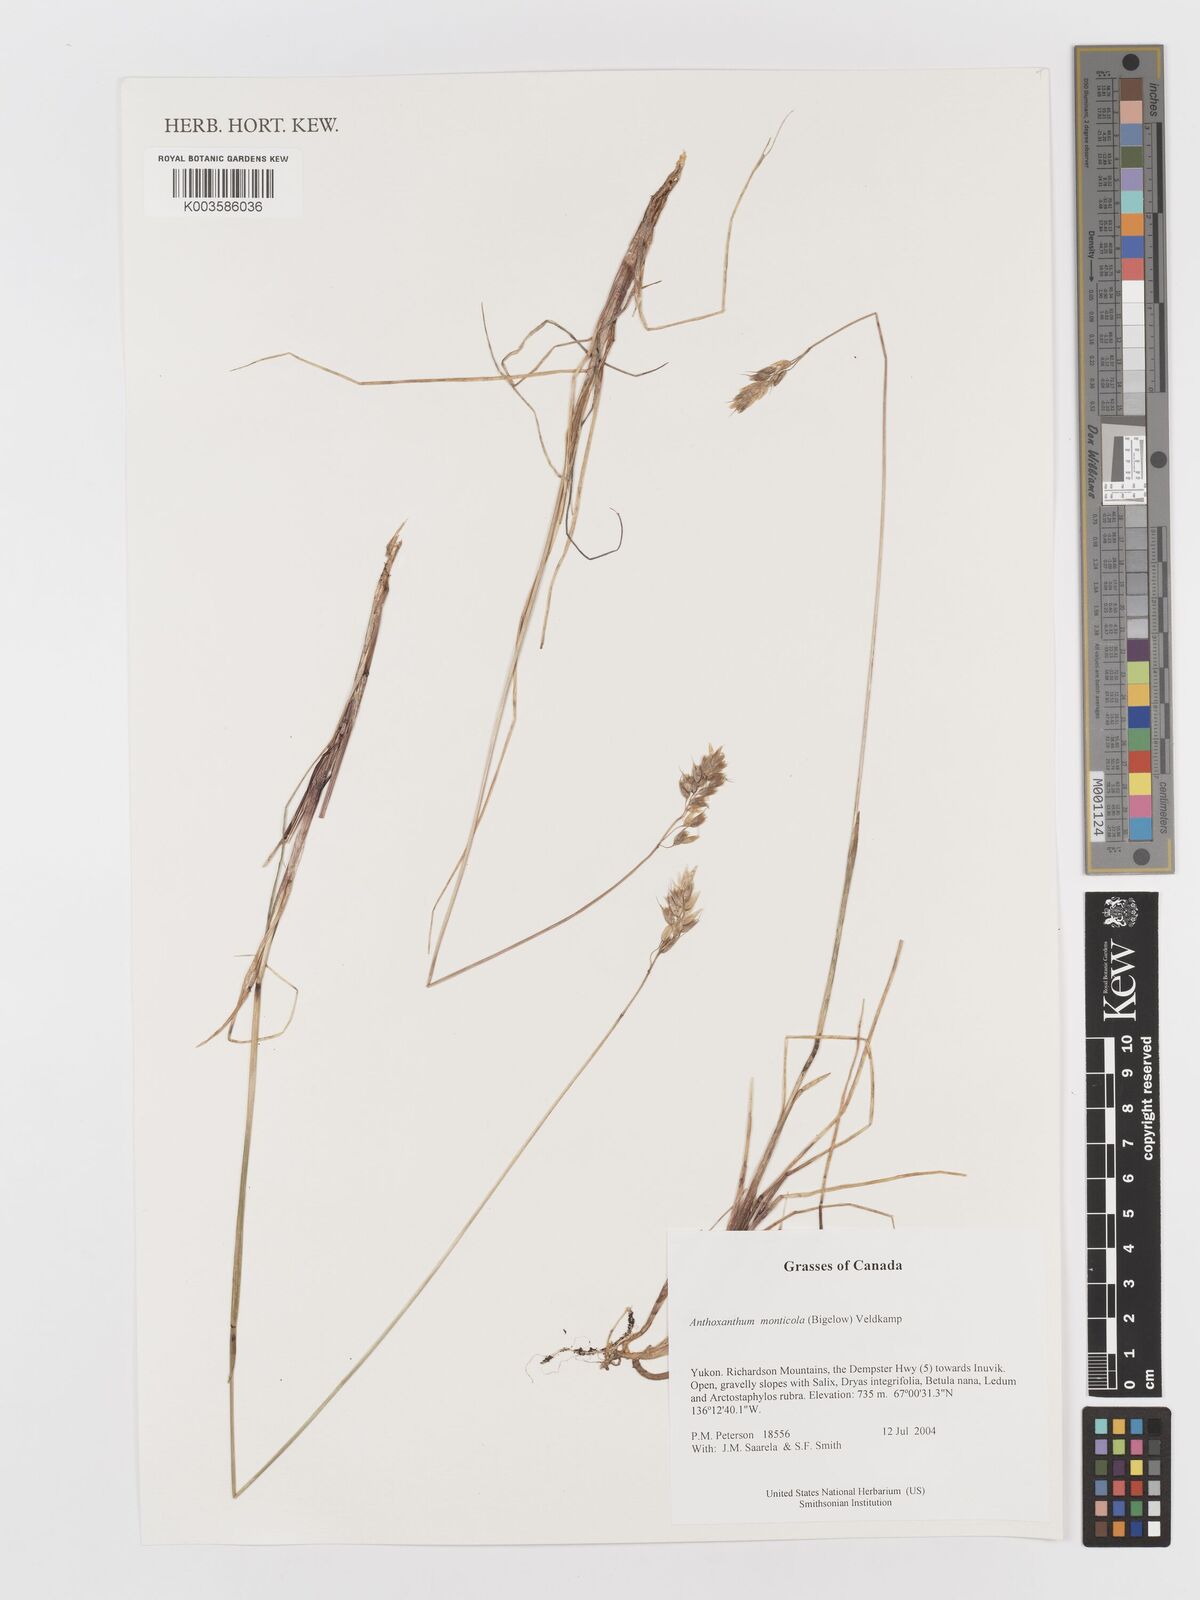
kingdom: Plantae
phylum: Tracheophyta
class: Liliopsida
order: Poales
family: Poaceae
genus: Anthoxanthum
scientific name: Anthoxanthum monticola
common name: Alpine sweetgrass
